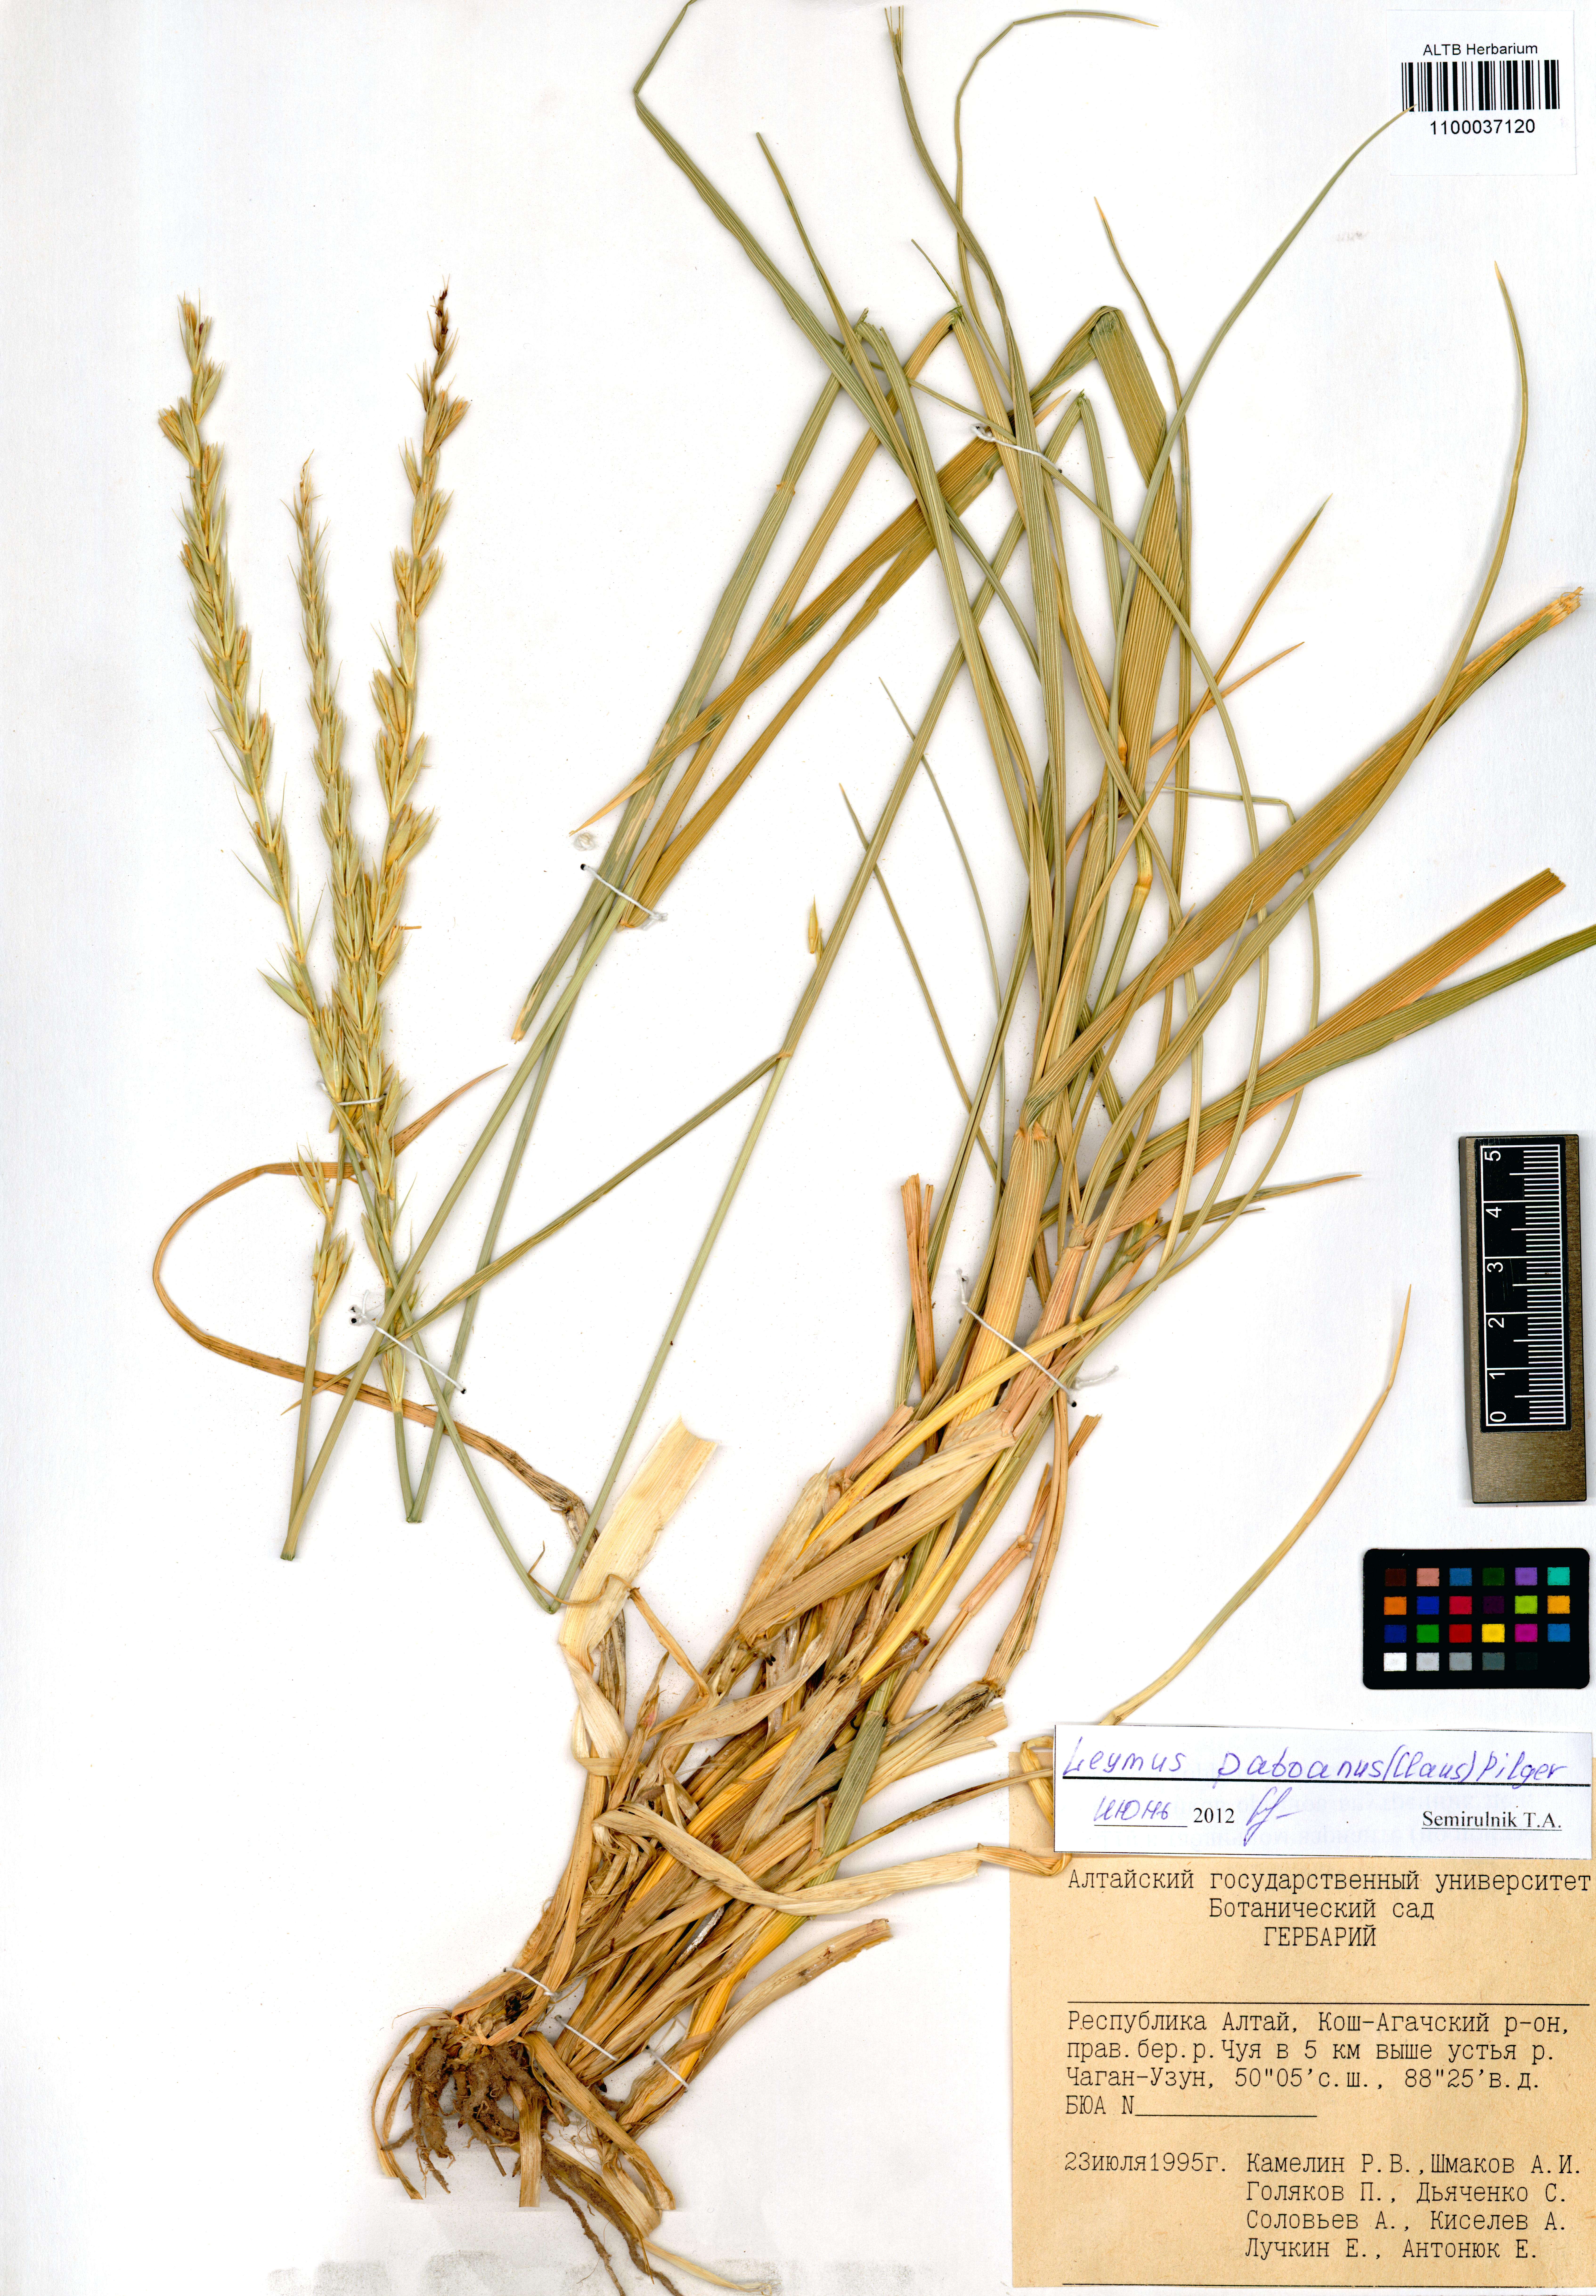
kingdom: Plantae
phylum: Tracheophyta
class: Liliopsida
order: Poales
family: Poaceae
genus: Leymus
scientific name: Leymus paboanus
